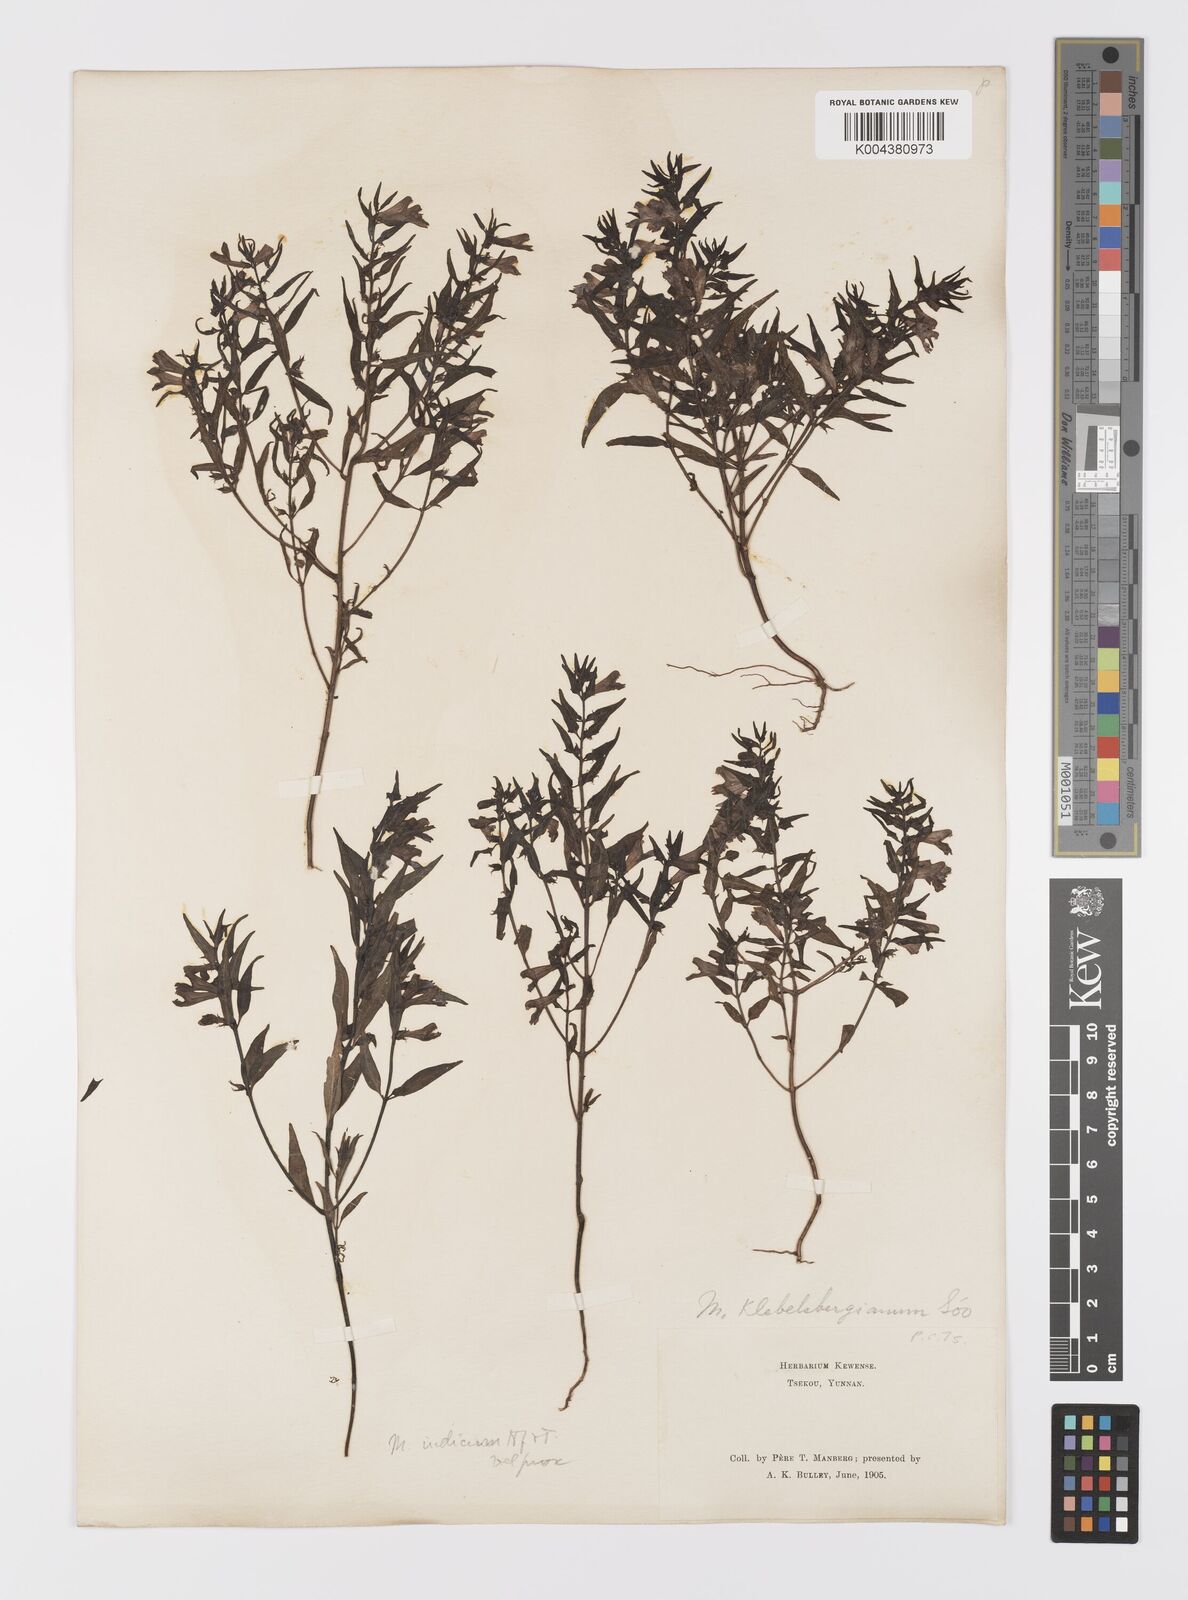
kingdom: Plantae
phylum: Tracheophyta
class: Magnoliopsida
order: Lamiales
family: Orobanchaceae
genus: Melampyrum
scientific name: Melampyrum chinense
